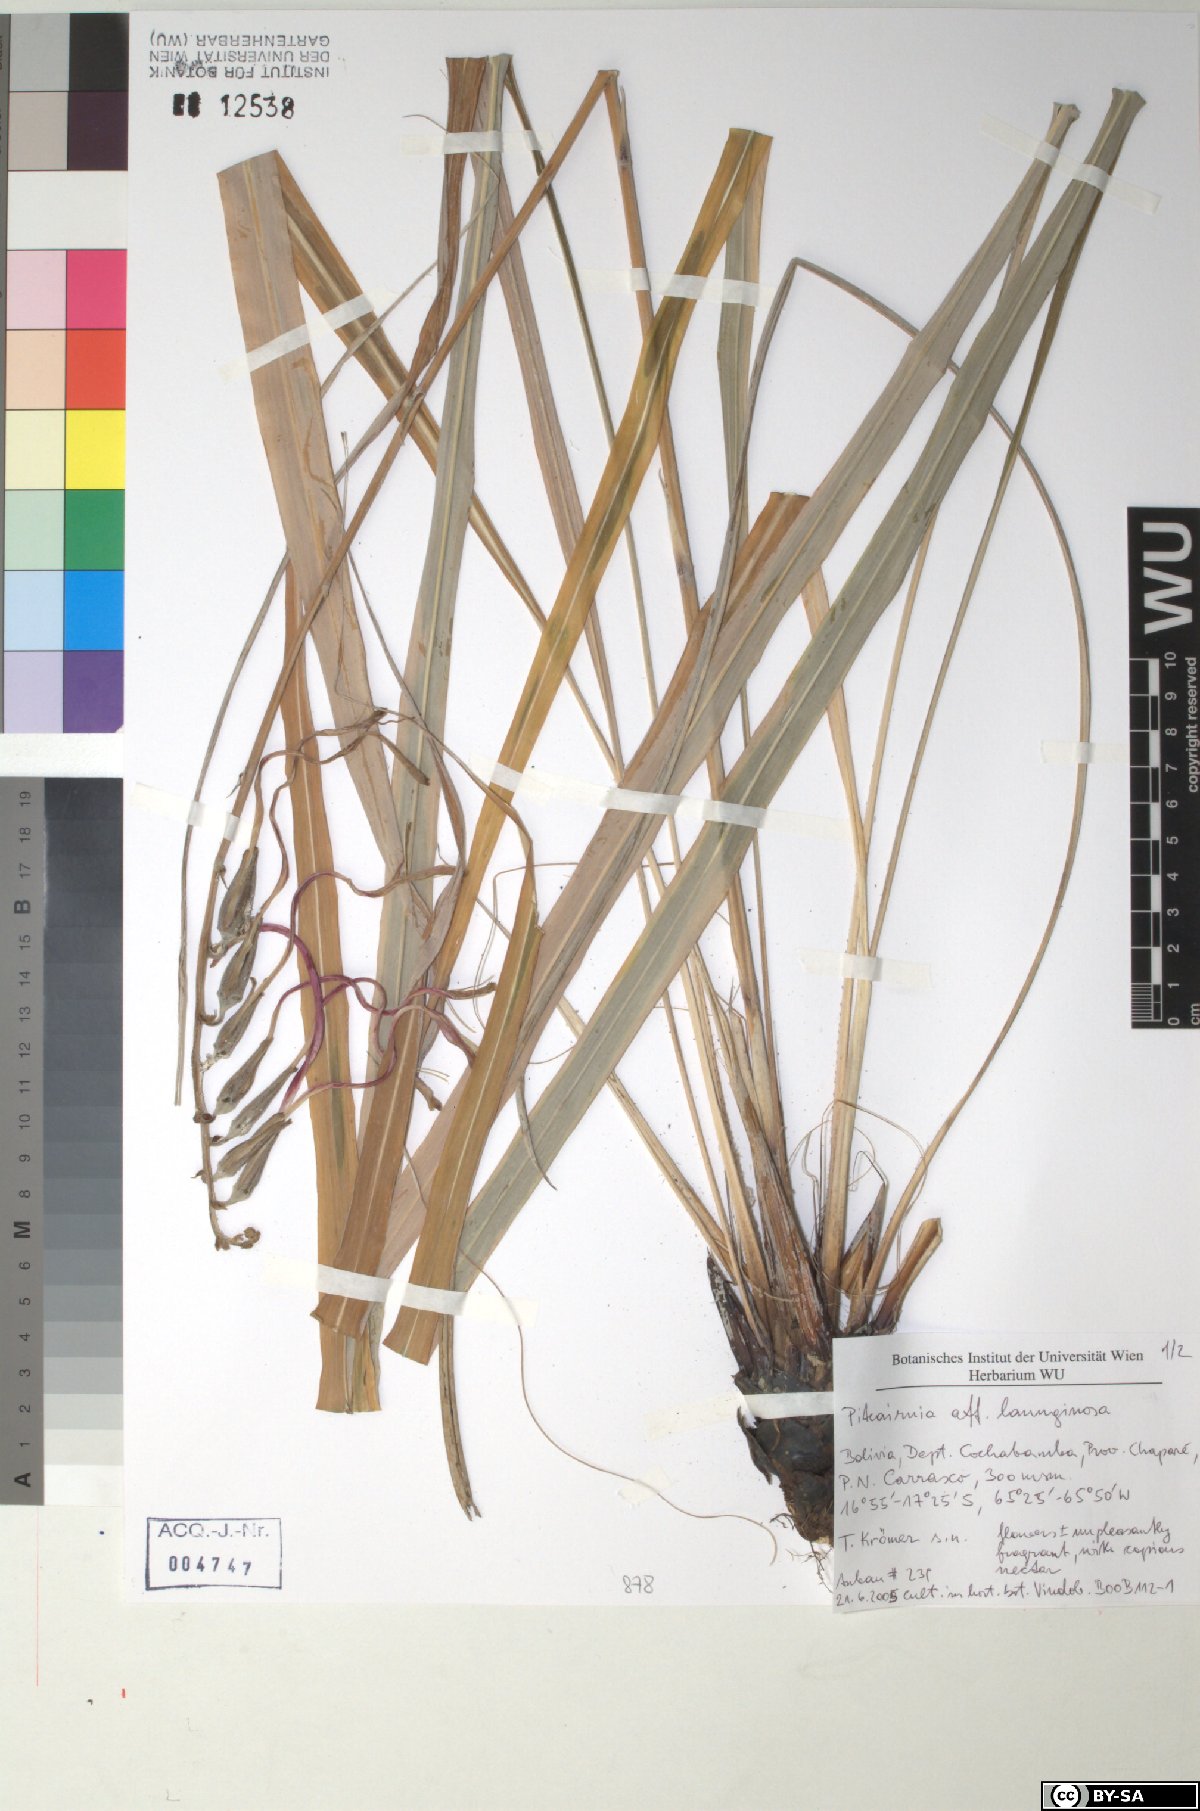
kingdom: Plantae
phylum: Tracheophyta
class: Liliopsida
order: Poales
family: Bromeliaceae
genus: Pitcairnia
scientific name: Pitcairnia lanuginosa
